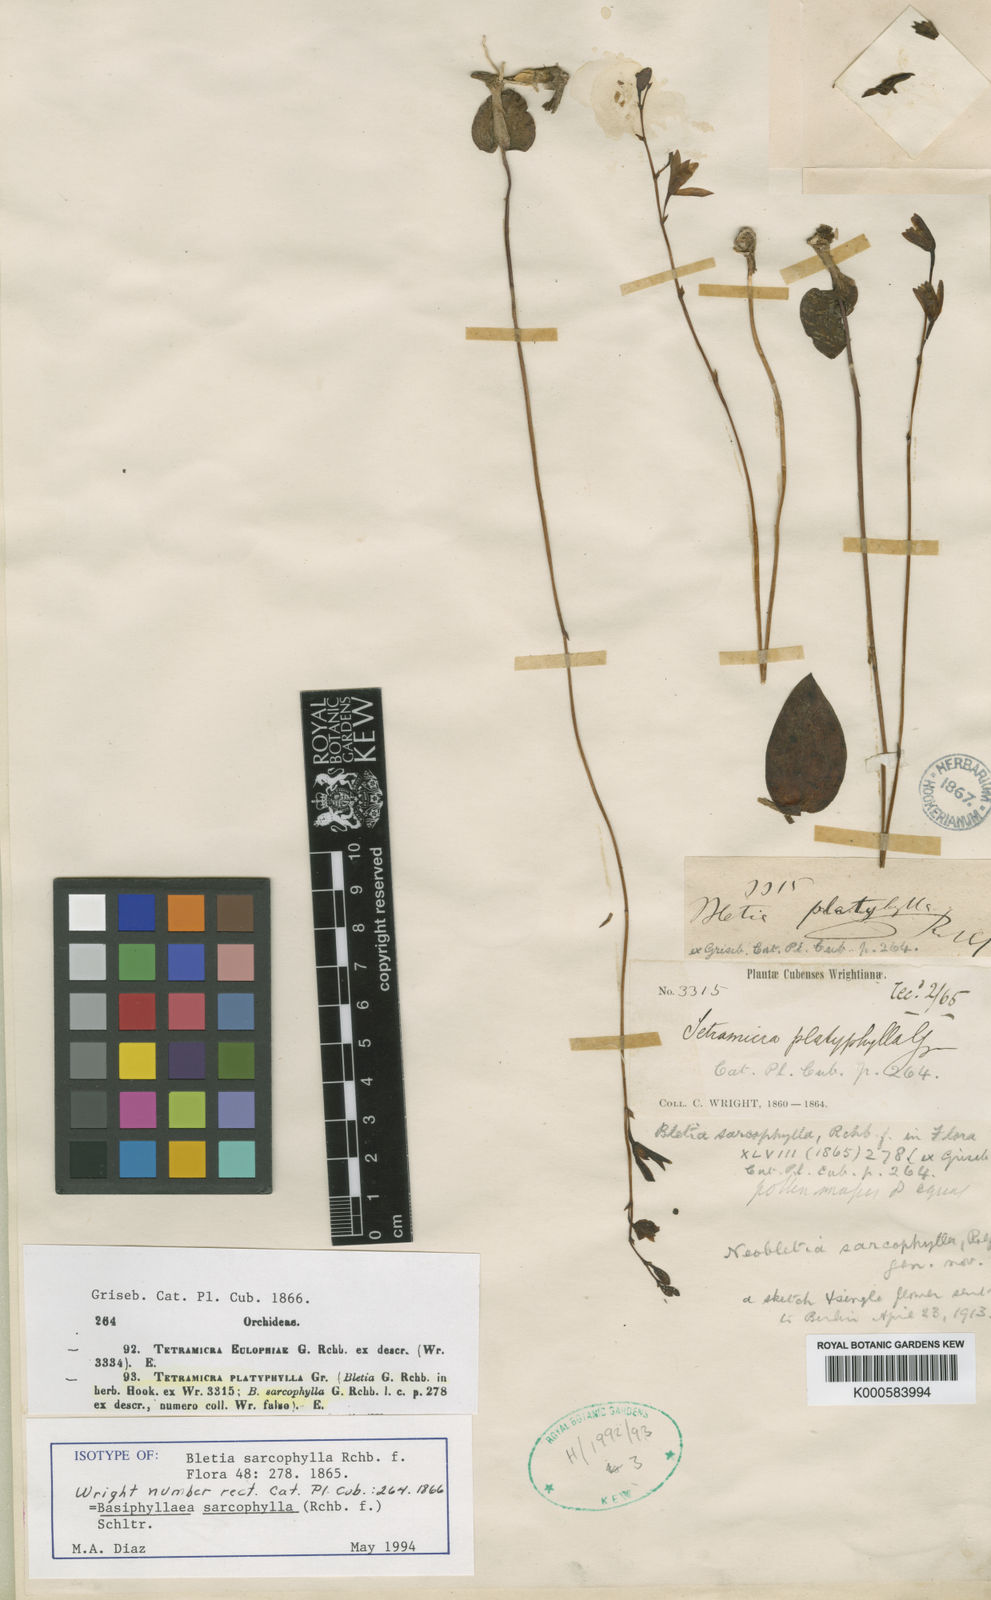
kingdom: Plantae
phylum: Tracheophyta
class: Liliopsida
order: Asparagales
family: Orchidaceae
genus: Bletia
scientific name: Bletia sarcophylla
